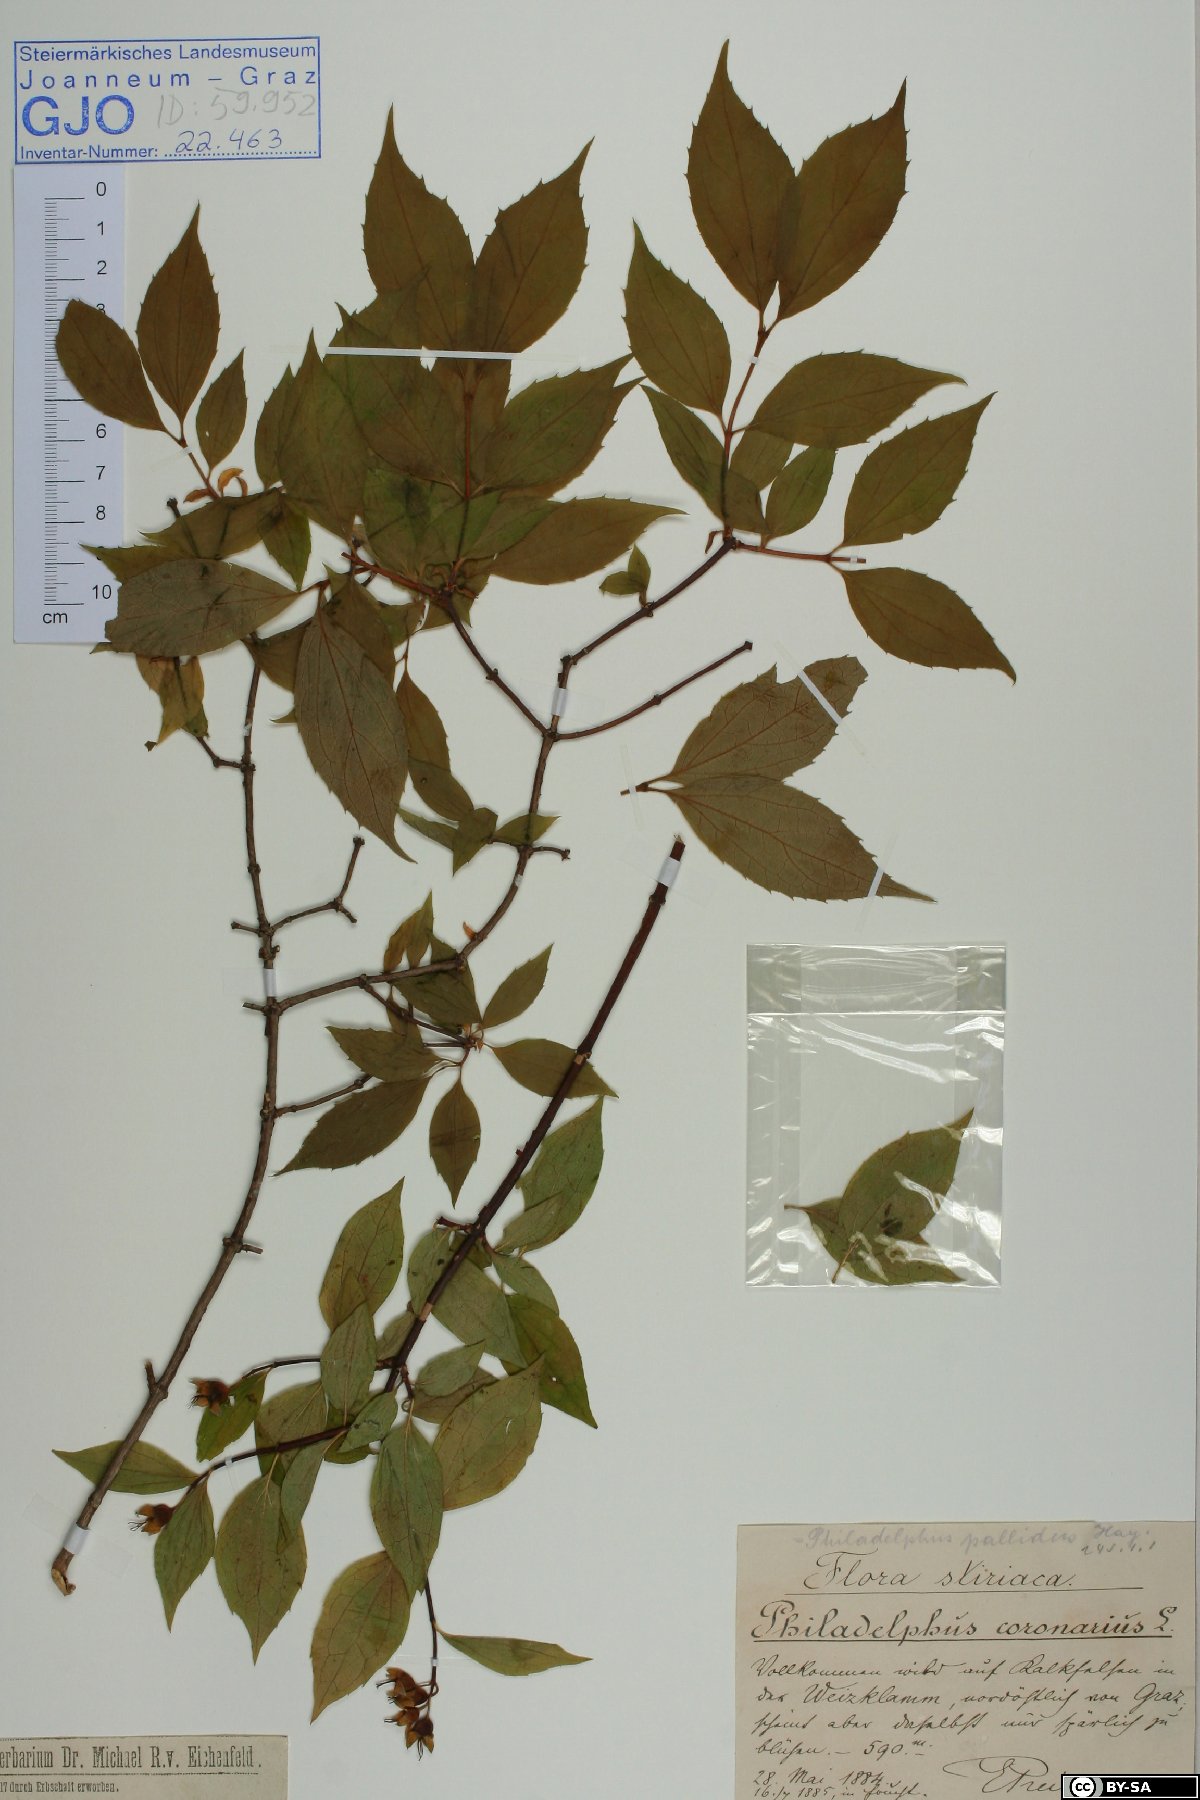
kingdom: Plantae
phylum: Tracheophyta
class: Magnoliopsida
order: Cornales
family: Hydrangeaceae
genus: Philadelphus
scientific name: Philadelphus coronarius
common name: Mock orange
